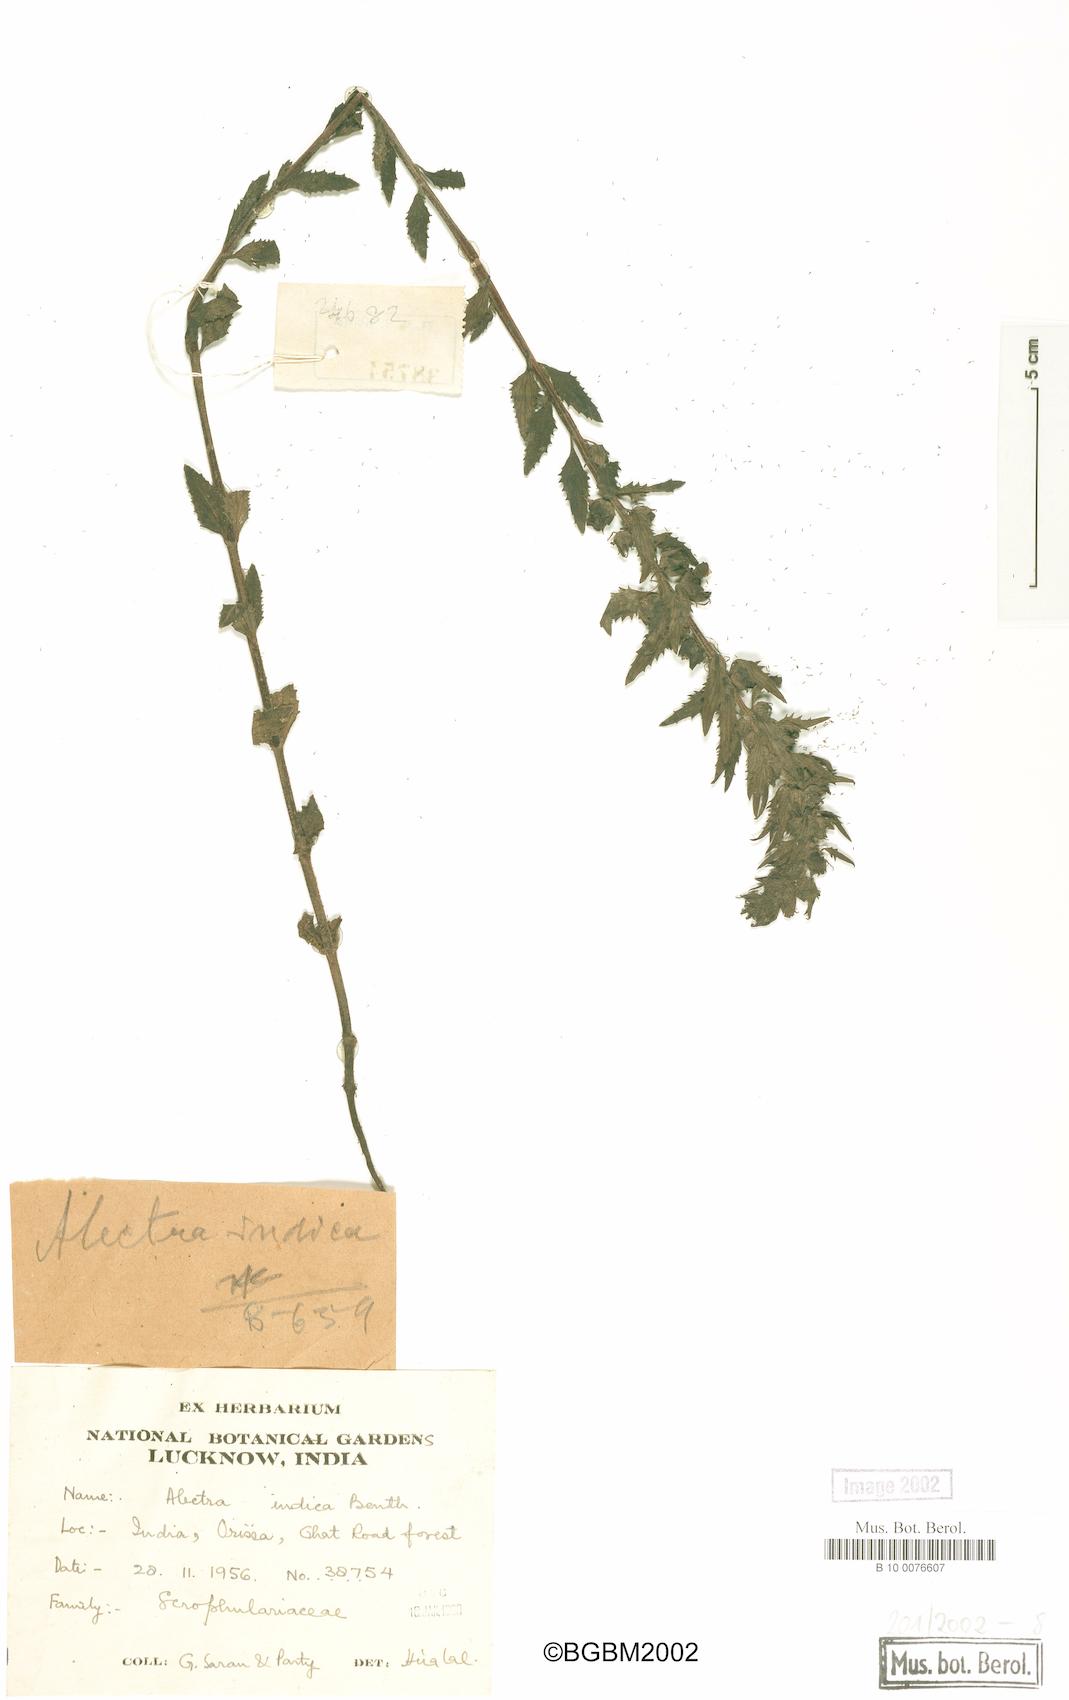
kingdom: Plantae
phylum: Tracheophyta
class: Magnoliopsida
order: Lamiales
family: Orobanchaceae
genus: Alectra
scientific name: Alectra avensis
